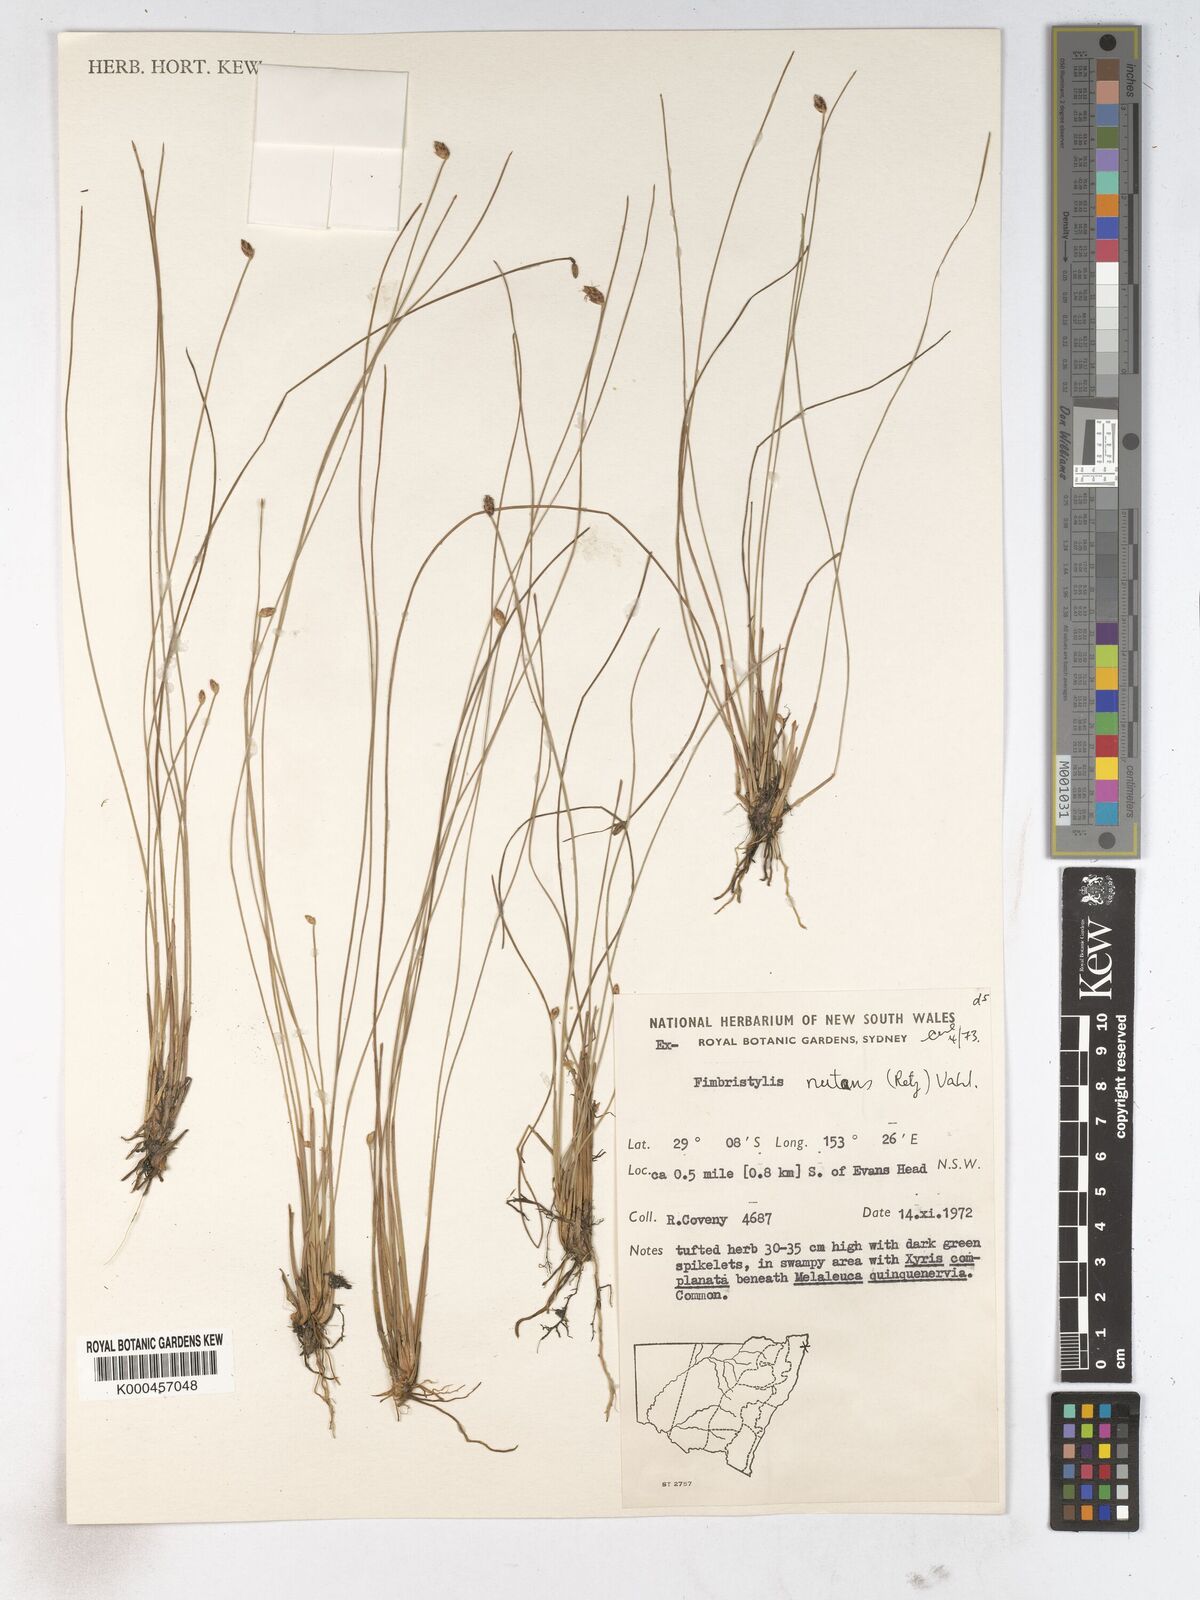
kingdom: Plantae
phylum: Tracheophyta
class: Liliopsida
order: Poales
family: Cyperaceae
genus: Fimbristylis
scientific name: Fimbristylis nutans
